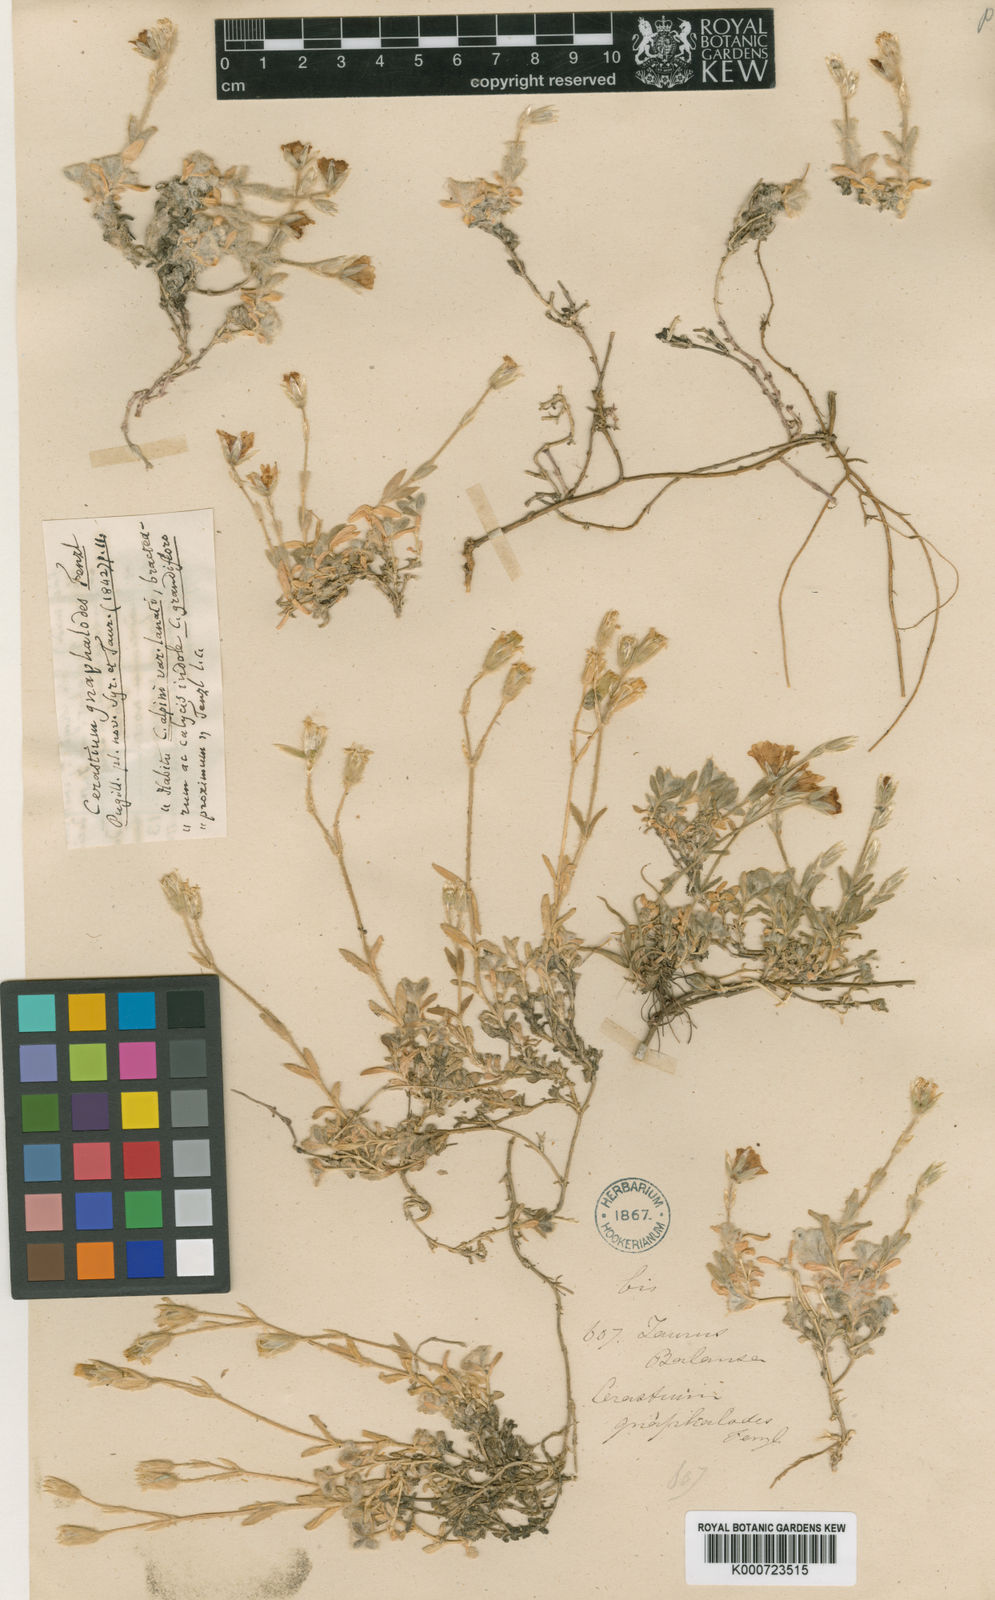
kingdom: Plantae
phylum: Tracheophyta
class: Magnoliopsida
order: Caryophyllales
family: Caryophyllaceae
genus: Cerastium
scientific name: Cerastium gnaphalodes
